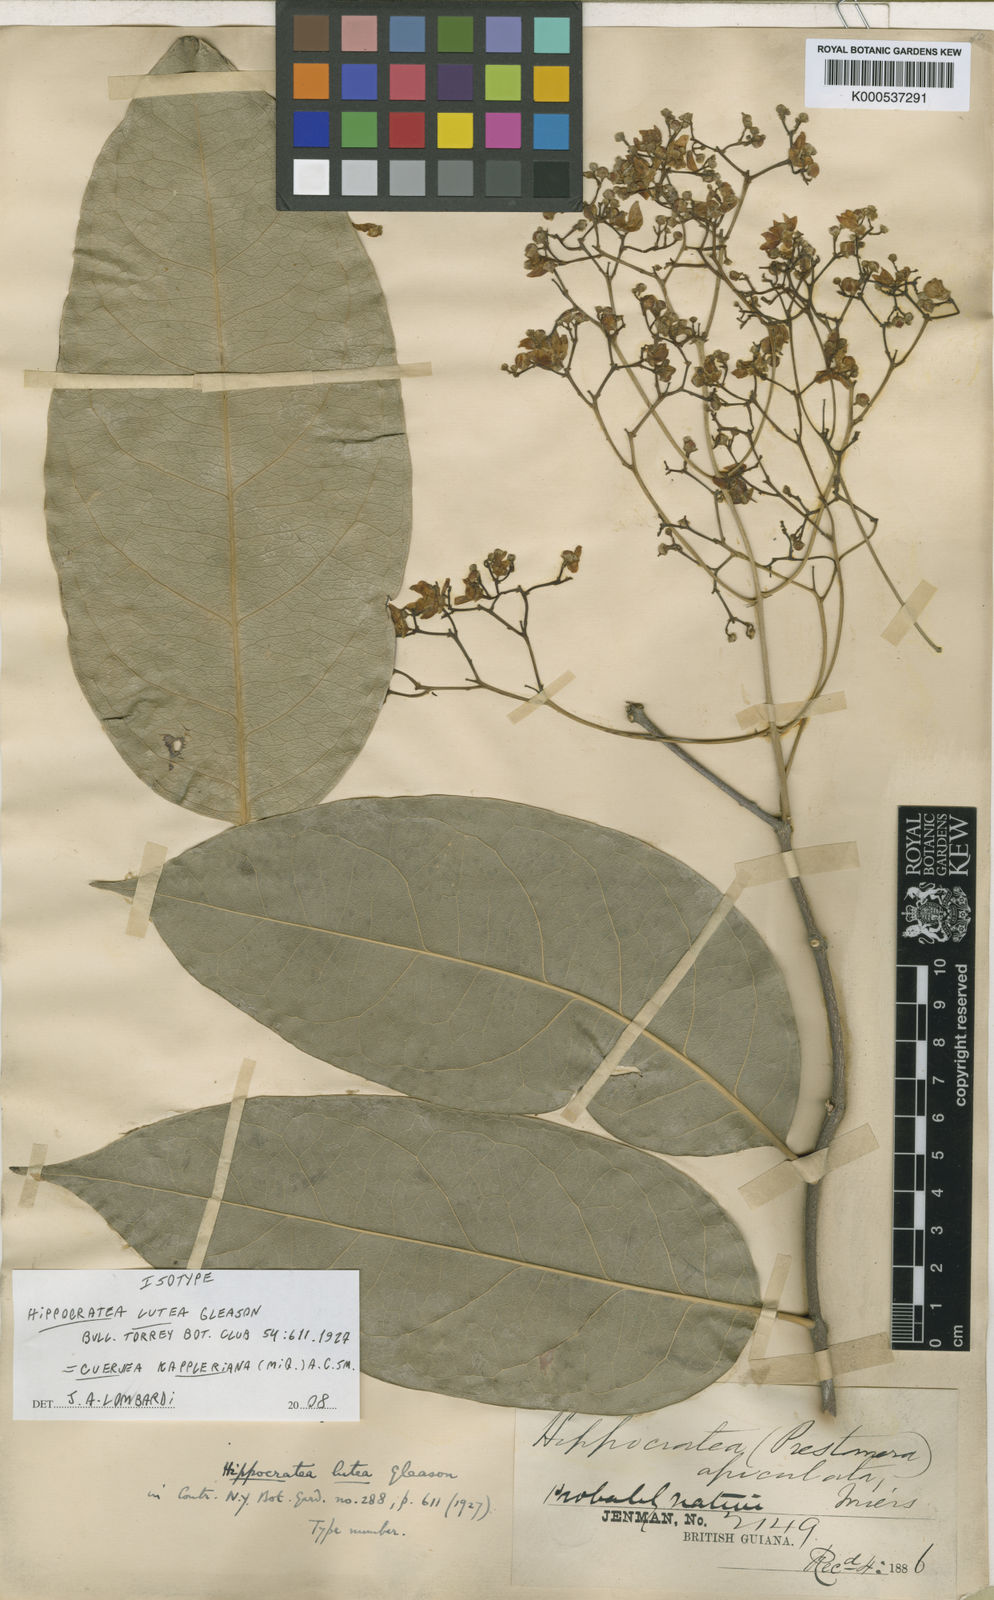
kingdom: Plantae
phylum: Tracheophyta
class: Magnoliopsida
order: Celastrales
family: Celastraceae
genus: Cuervea
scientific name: Cuervea kappleriana
